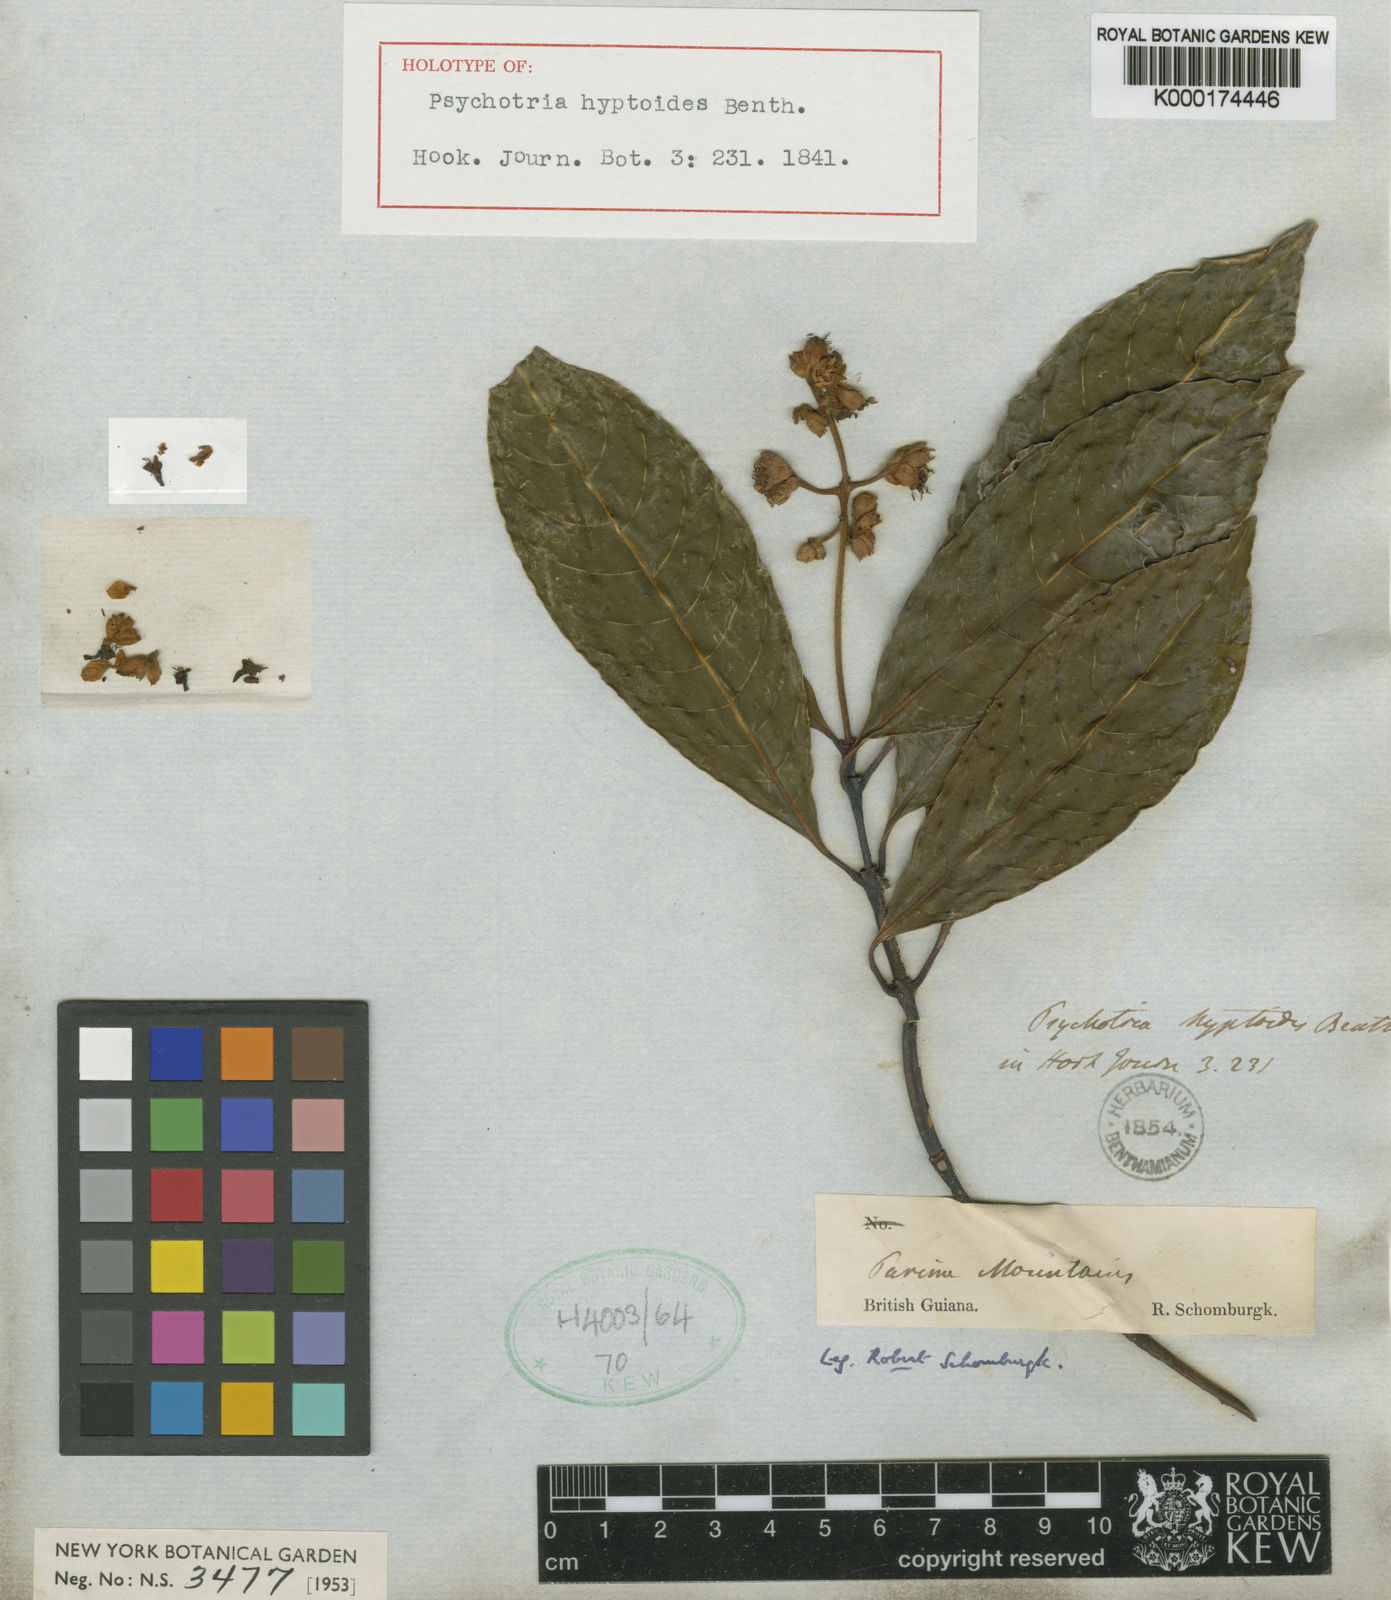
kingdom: Plantae
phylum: Tracheophyta
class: Magnoliopsida
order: Gentianales
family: Rubiaceae
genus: Palicourea
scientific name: Palicourea hyptoides
